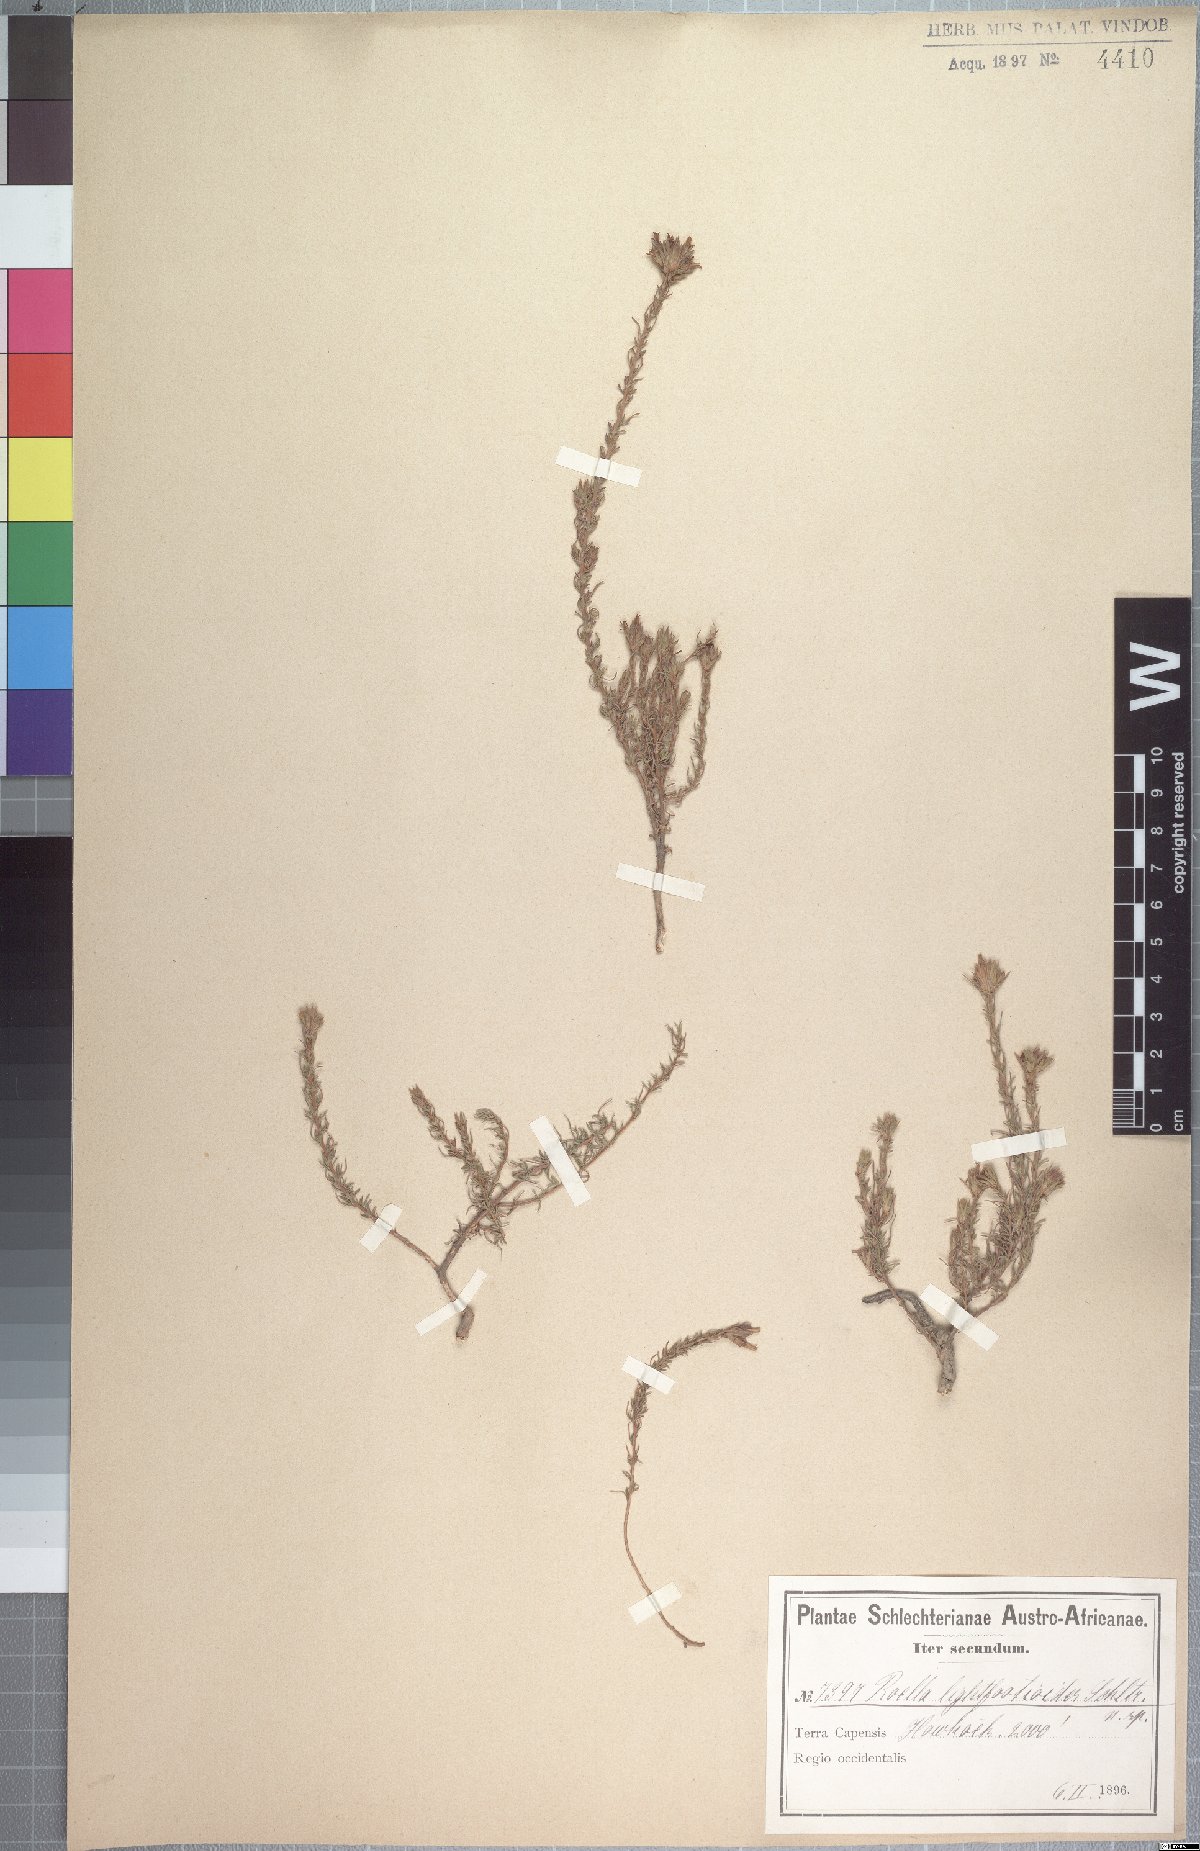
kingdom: Plantae
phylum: Tracheophyta
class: Magnoliopsida
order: Asterales
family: Campanulaceae
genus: Roella
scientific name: Roella spicata
